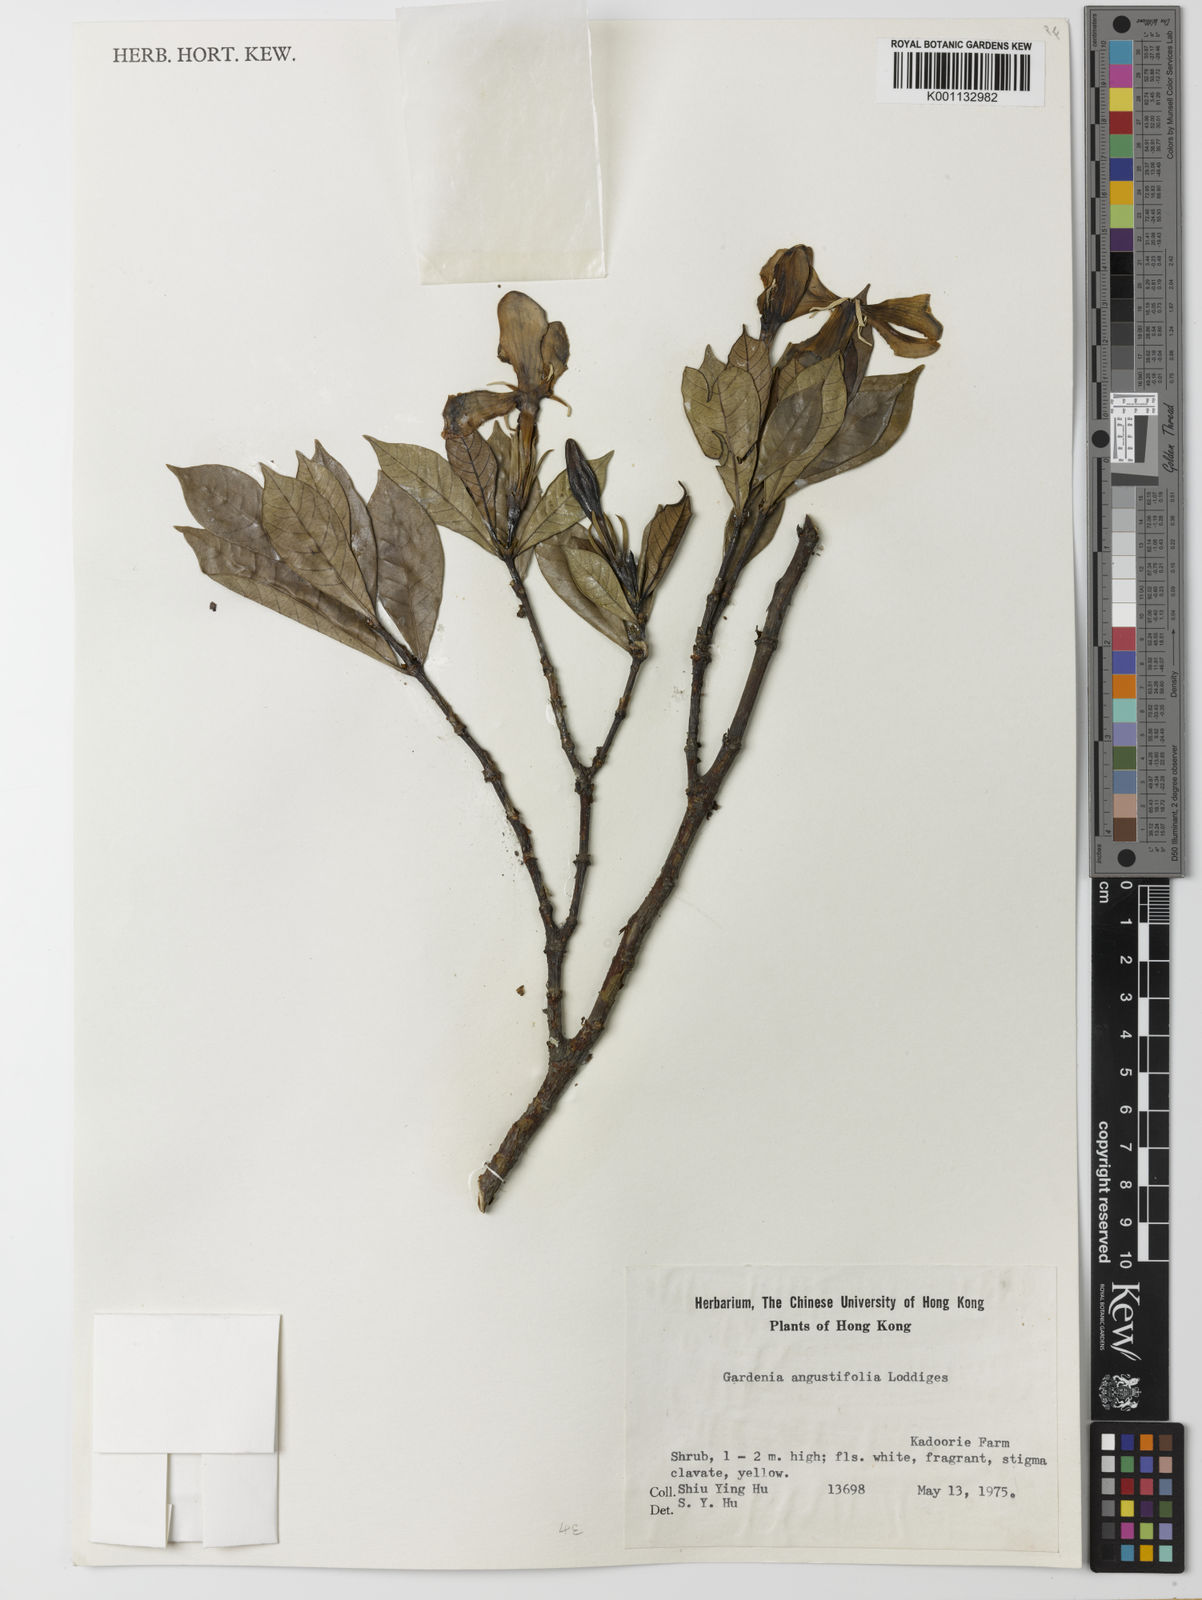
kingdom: Plantae
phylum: Tracheophyta
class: Magnoliopsida
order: Gentianales
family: Rubiaceae
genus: Gardenia
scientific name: Gardenia jasminoides
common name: Cape-jasmine
